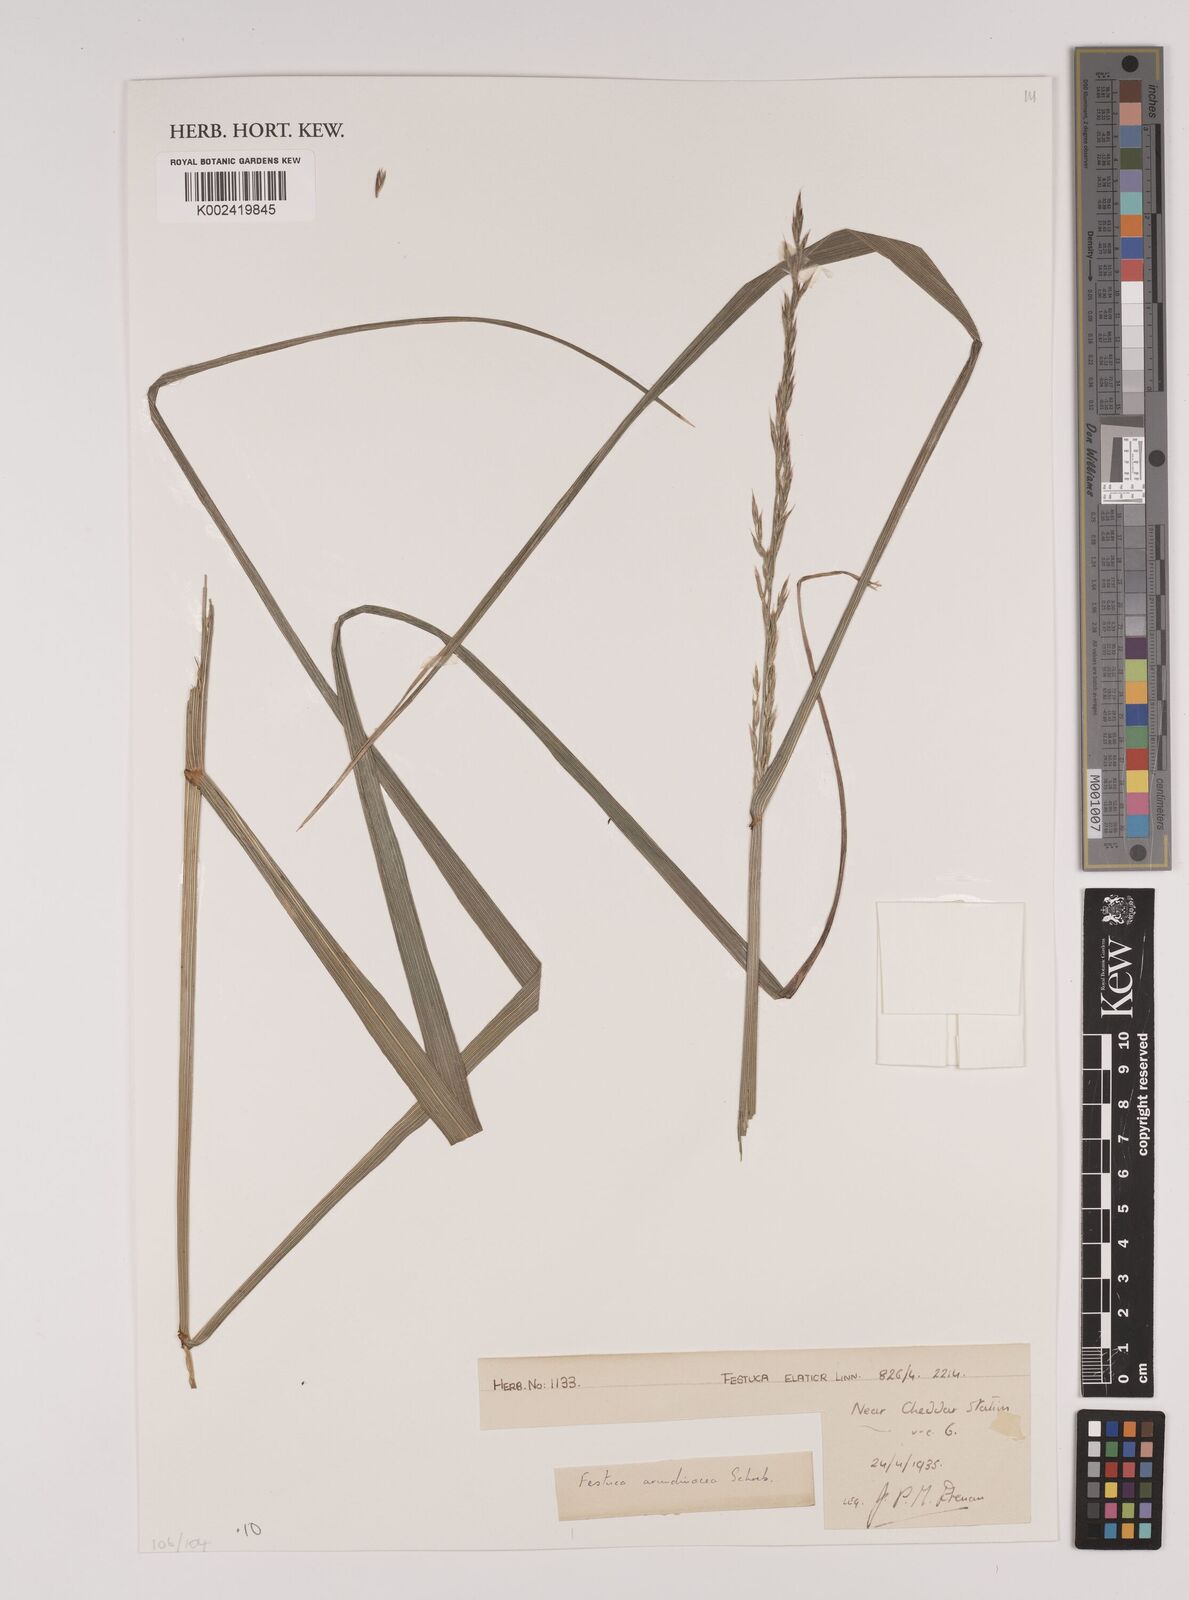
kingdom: Plantae
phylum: Tracheophyta
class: Liliopsida
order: Poales
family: Poaceae
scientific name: Poaceae
